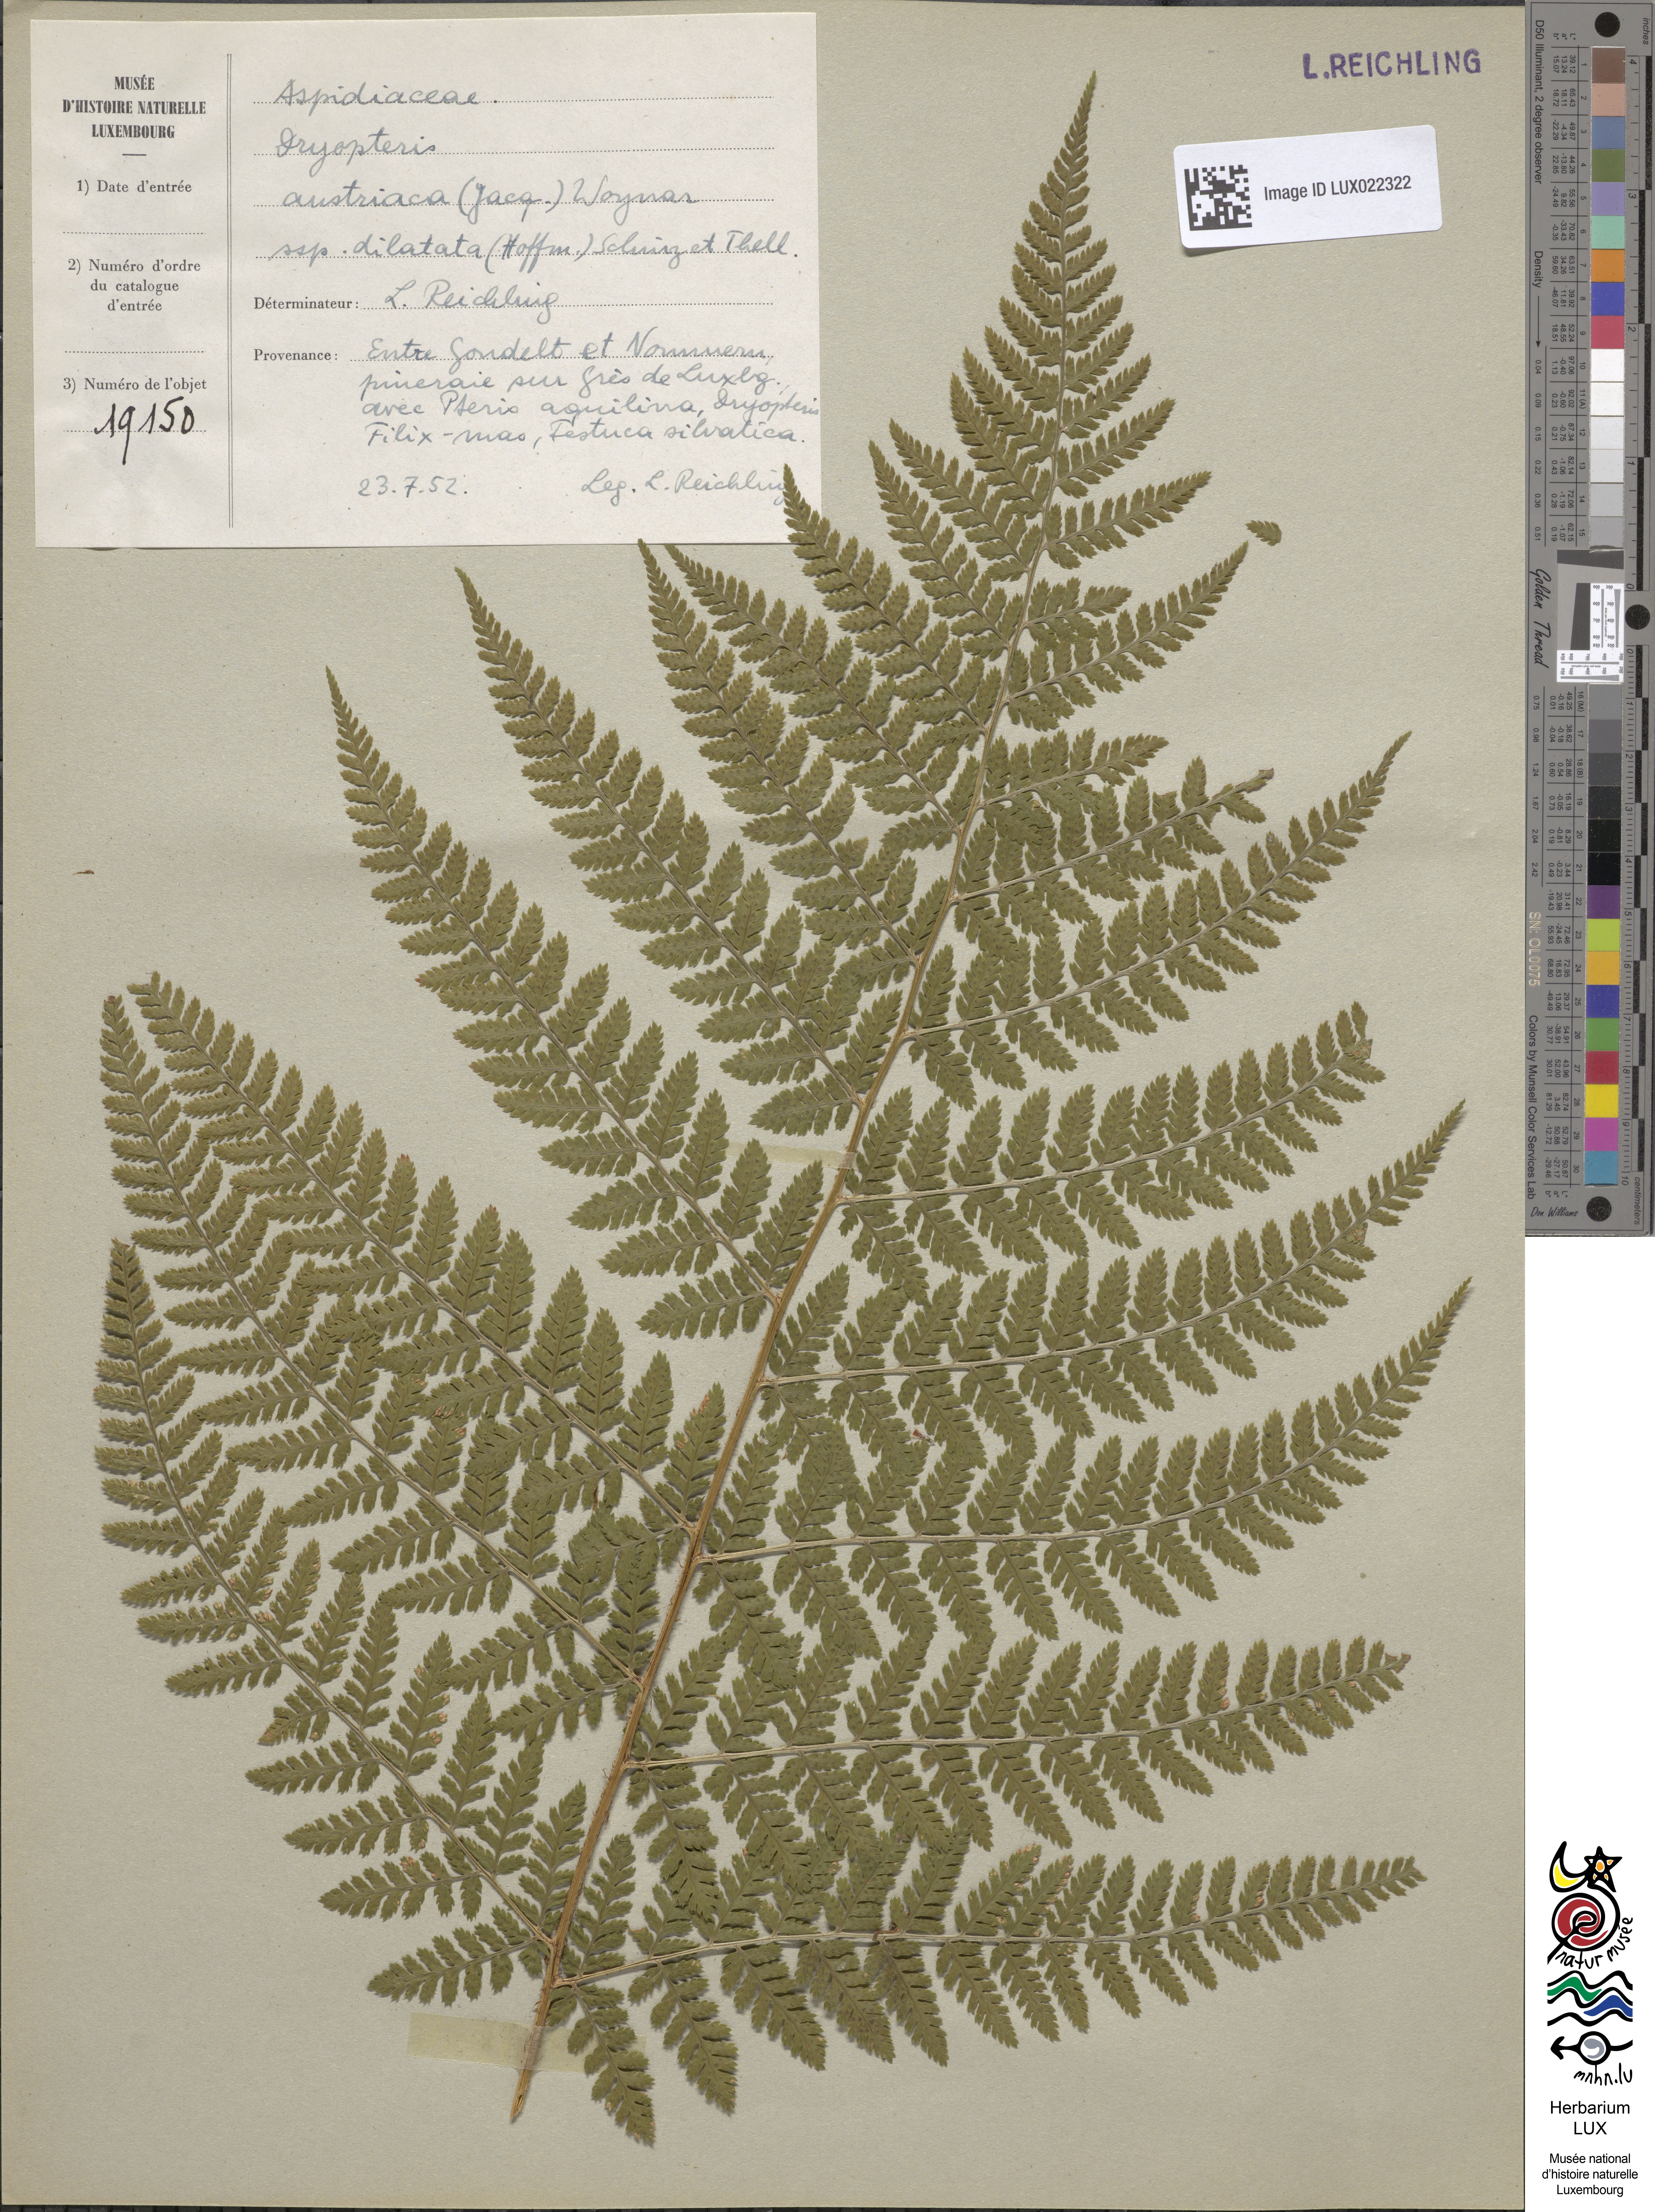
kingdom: Plantae
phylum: Tracheophyta
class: Polypodiopsida
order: Polypodiales
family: Dryopteridaceae
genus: Dryopteris
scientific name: Dryopteris dilatata
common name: Broad buckler-fern
